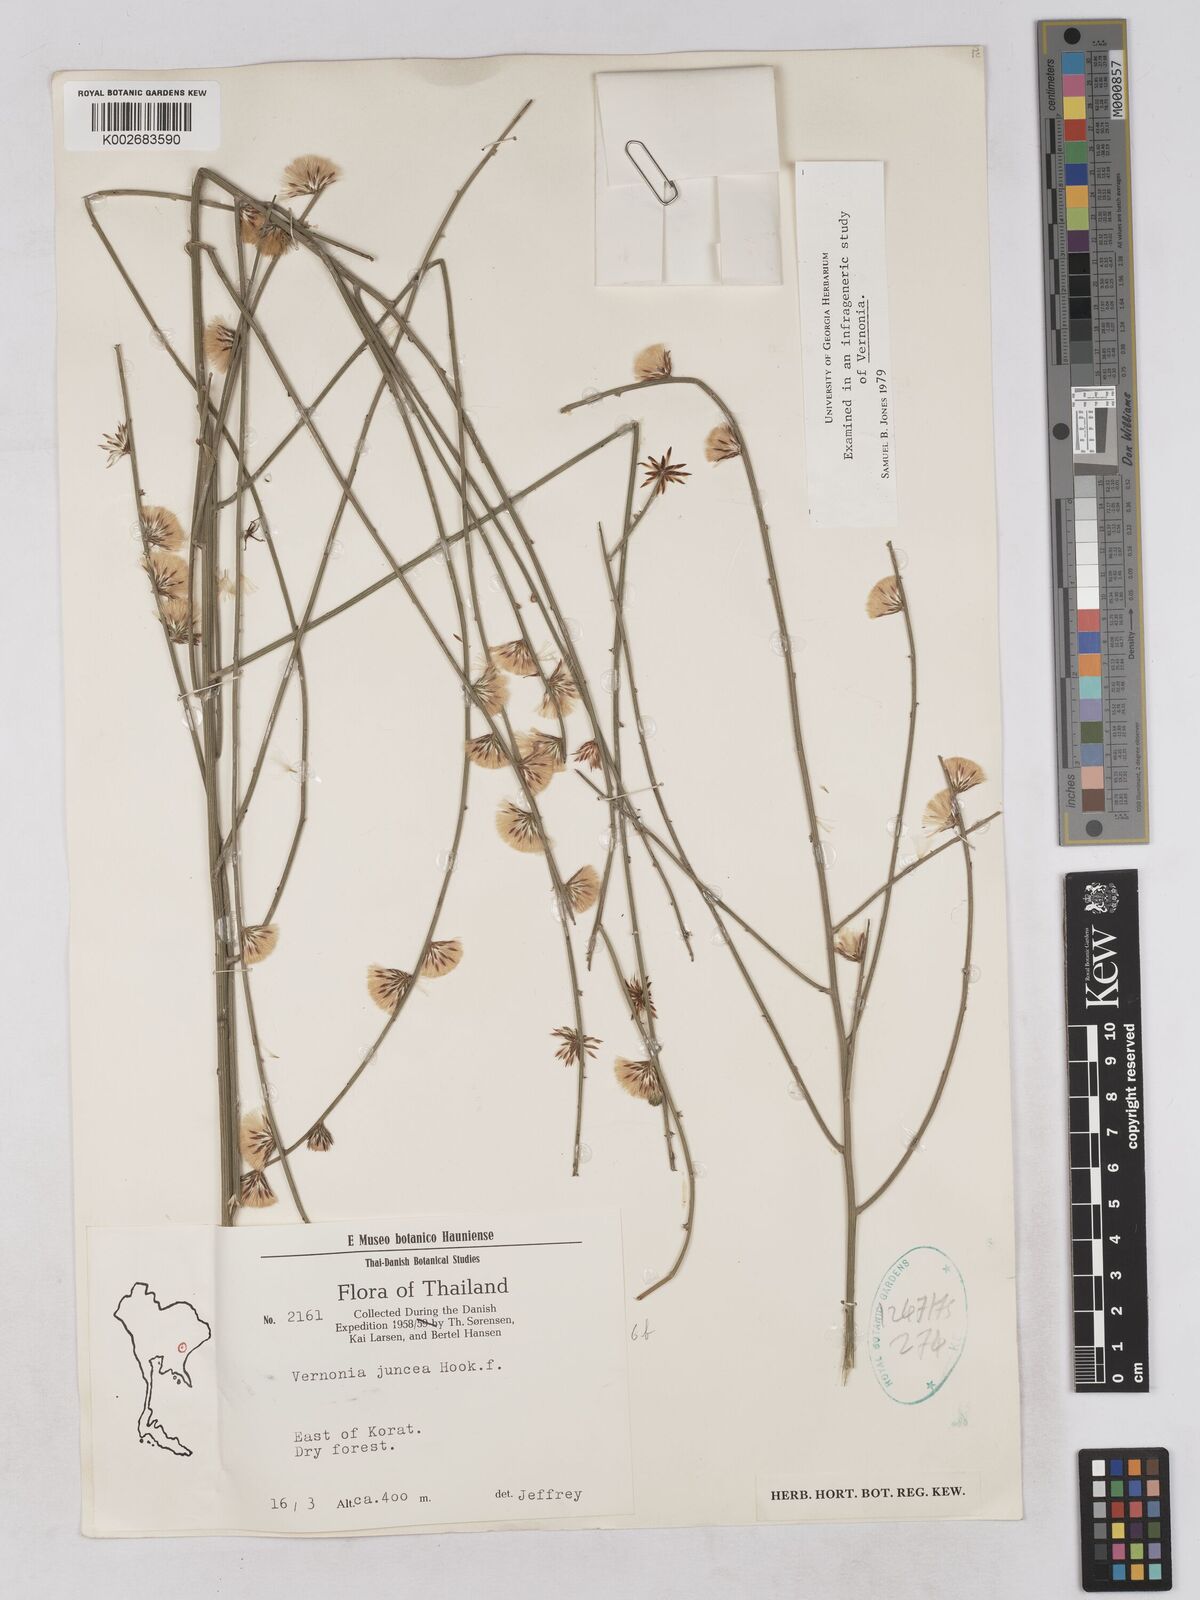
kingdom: Plantae
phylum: Tracheophyta
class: Magnoliopsida
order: Asterales
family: Asteraceae
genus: Vernonia
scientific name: Vernonia
